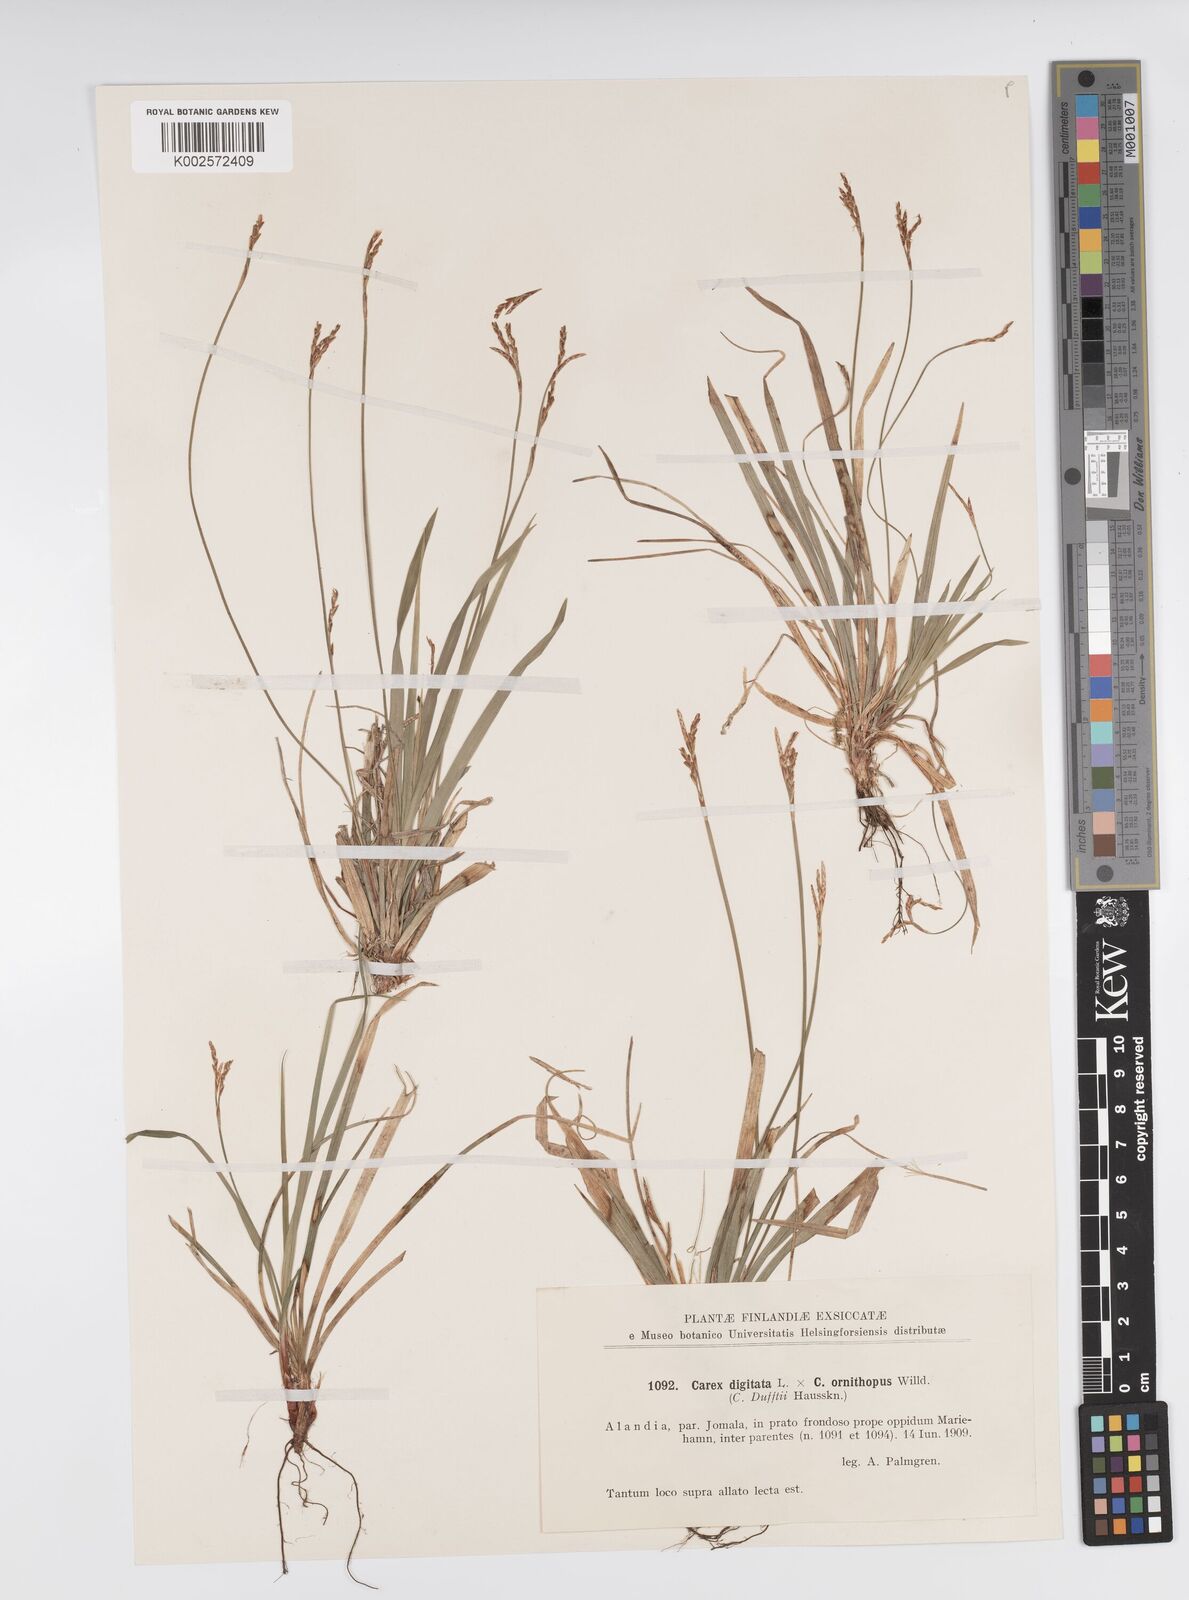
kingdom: Plantae
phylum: Tracheophyta
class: Liliopsida
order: Poales
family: Cyperaceae
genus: Carex
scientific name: Carex digitata
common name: Fingered sedge
